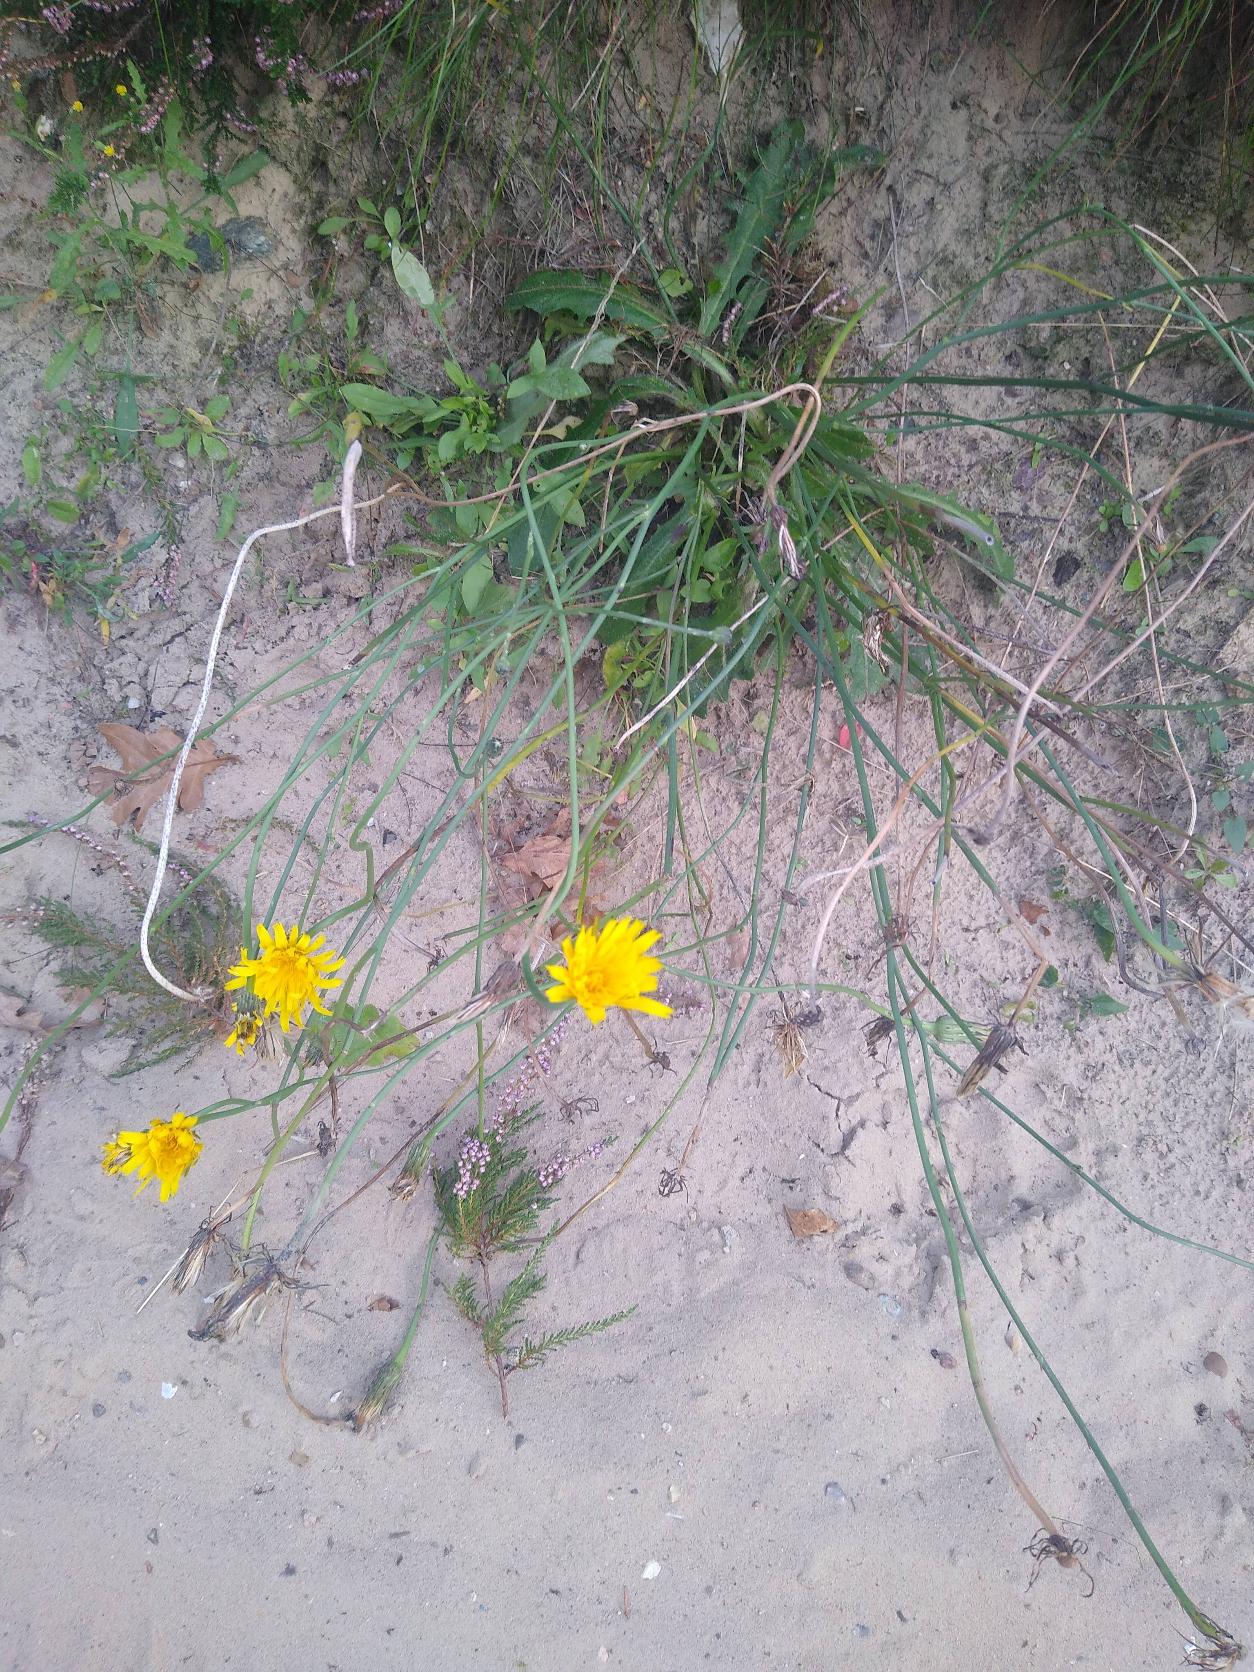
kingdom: Plantae
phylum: Tracheophyta
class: Magnoliopsida
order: Asterales
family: Asteraceae
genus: Hypochaeris
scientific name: Hypochaeris radicata
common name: Almindelig kongepen
